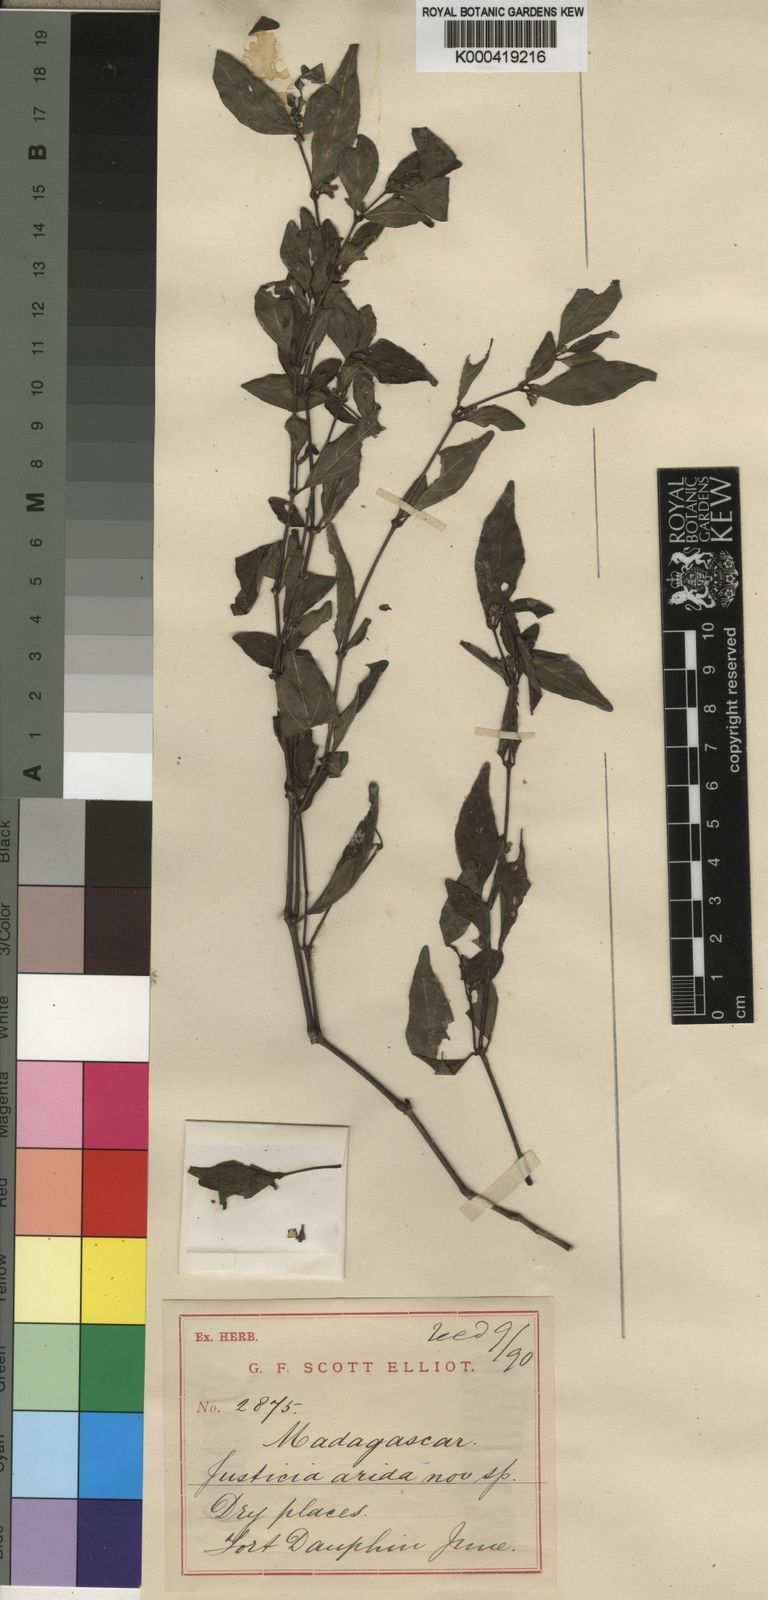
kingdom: Plantae
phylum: Tracheophyta
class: Magnoliopsida
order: Lamiales
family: Acanthaceae
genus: Anisostachya
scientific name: Anisostachya arida
